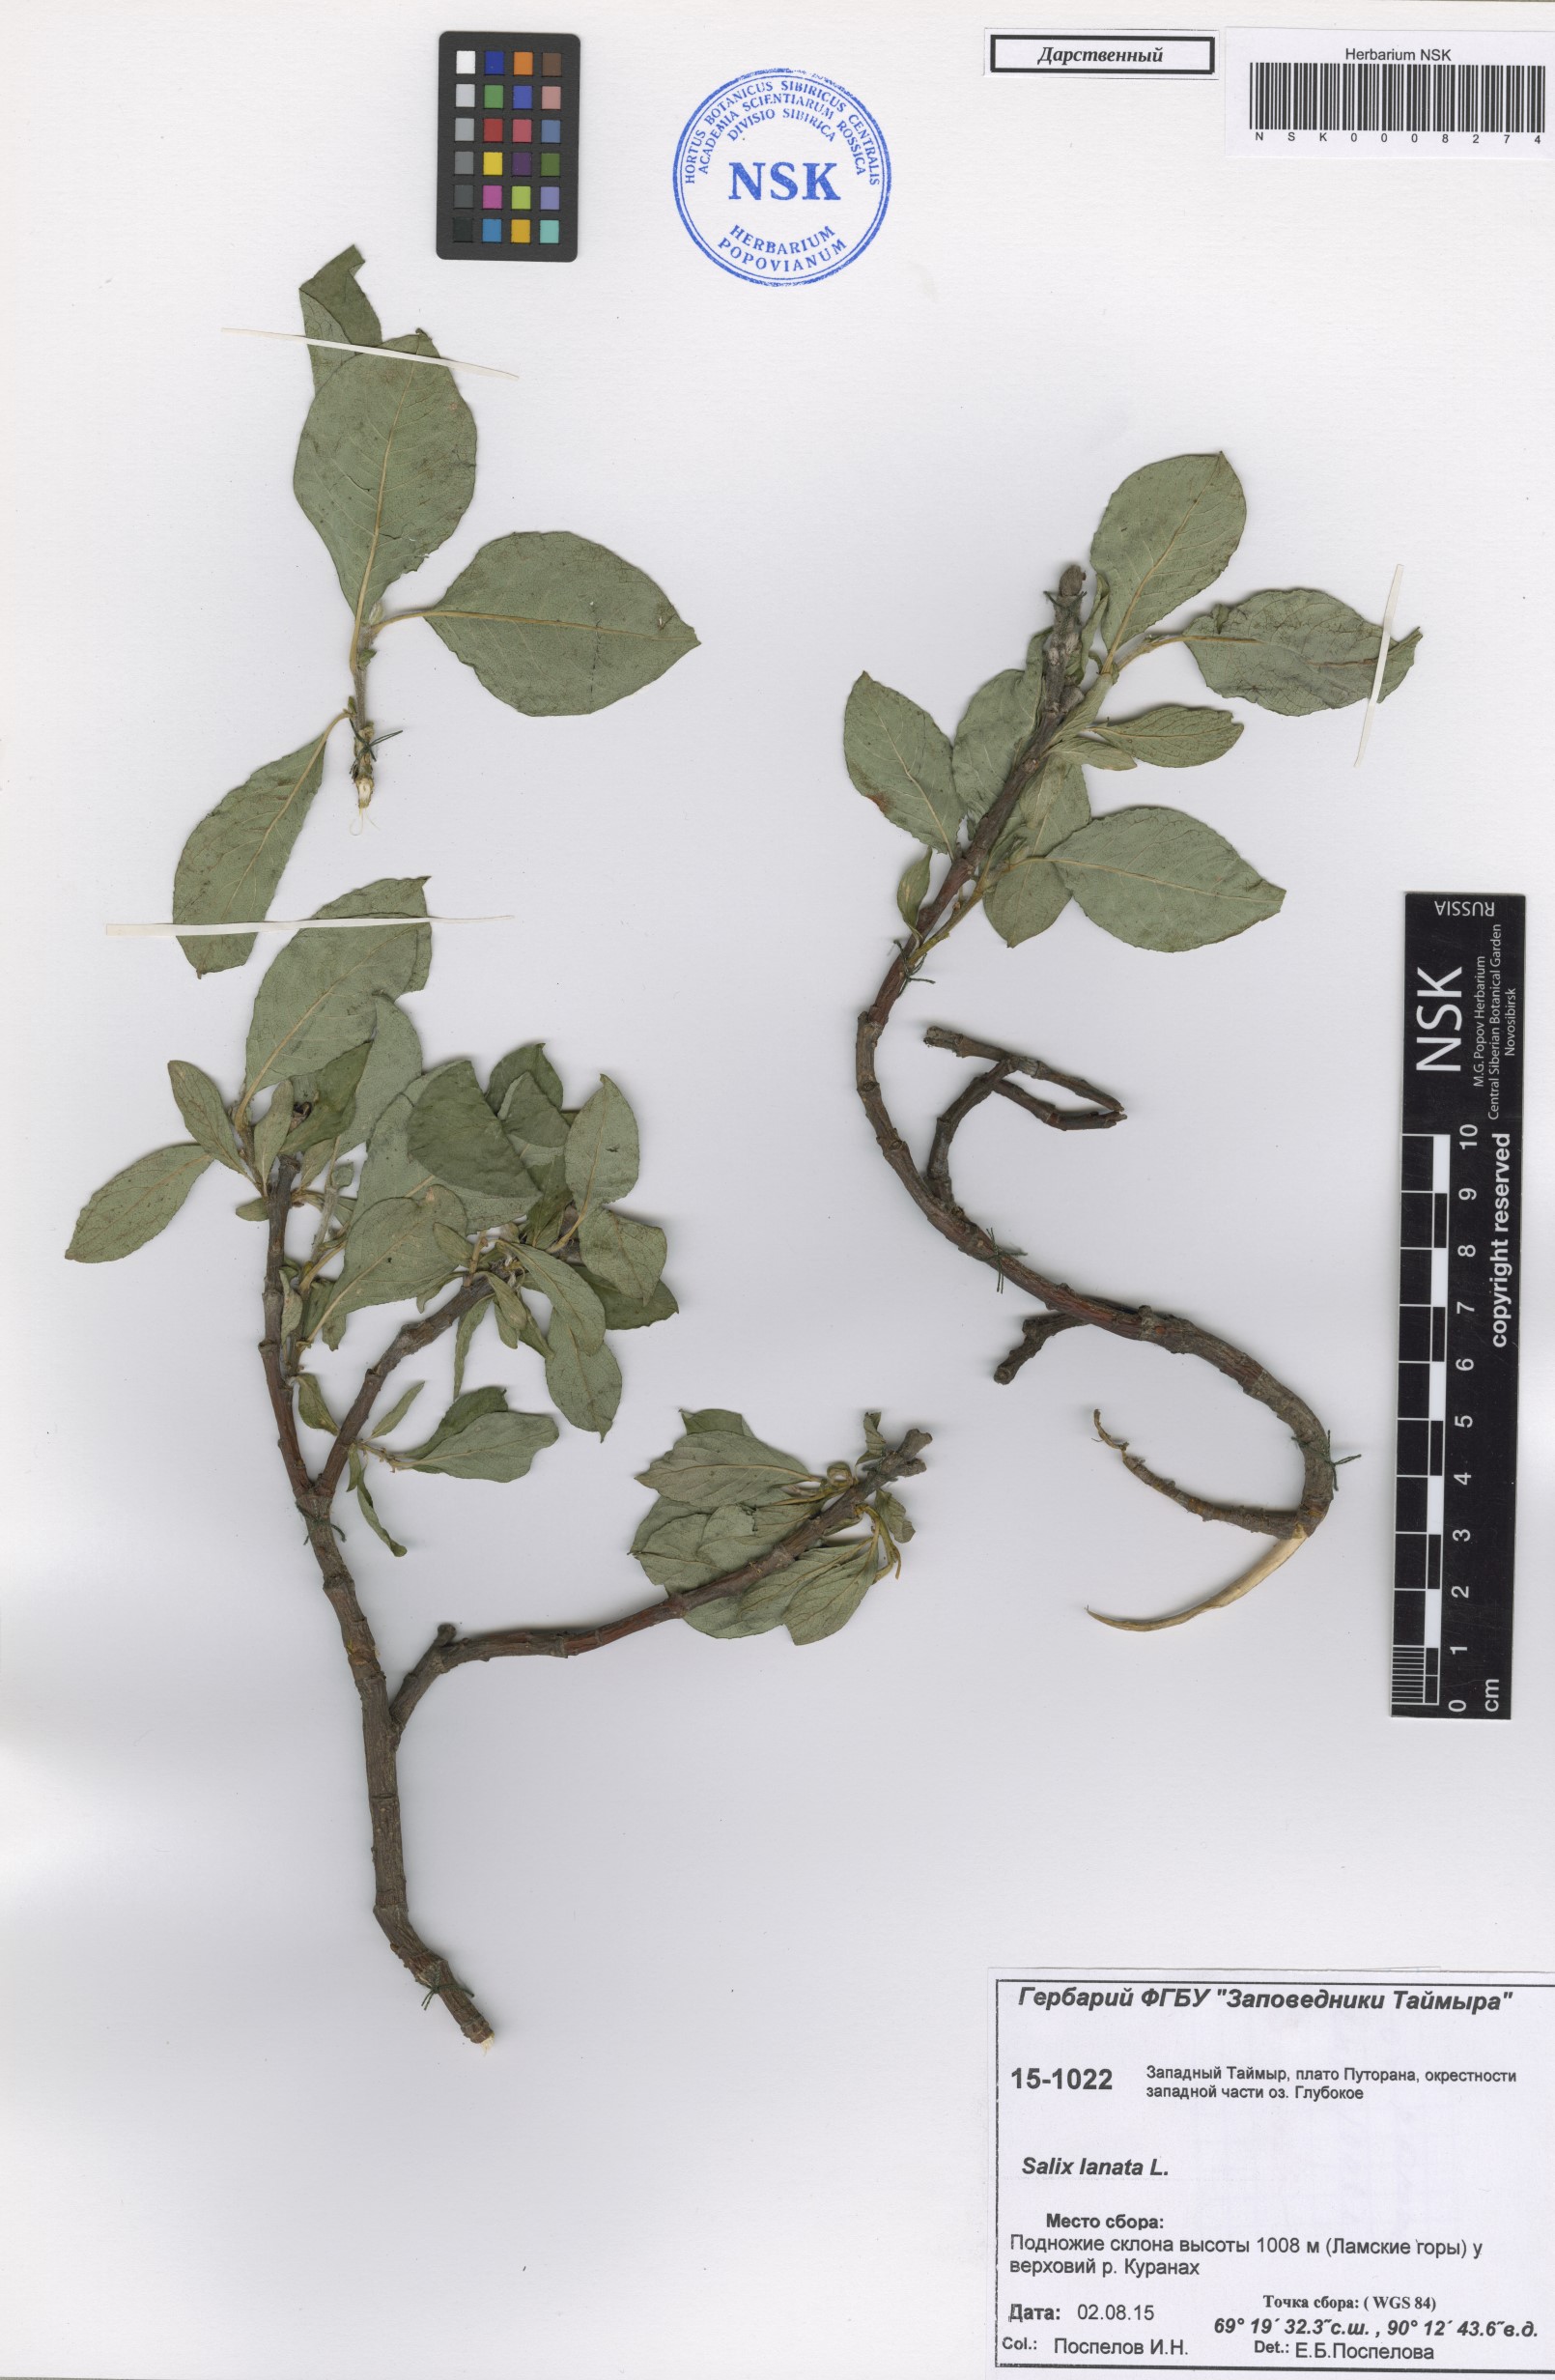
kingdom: Plantae
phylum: Tracheophyta
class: Magnoliopsida
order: Malpighiales
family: Salicaceae
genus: Salix
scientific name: Salix lanata
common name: Woolly willow
